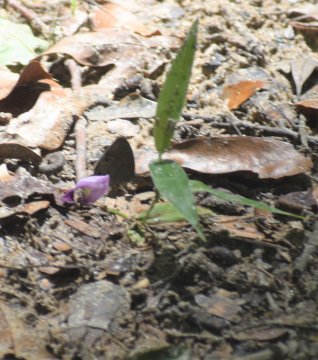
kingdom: Animalia
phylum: Arthropoda
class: Insecta
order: Lepidoptera
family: Nymphalidae
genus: Hermeuptychia
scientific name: Hermeuptychia hermes
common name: Carolina Satyr
